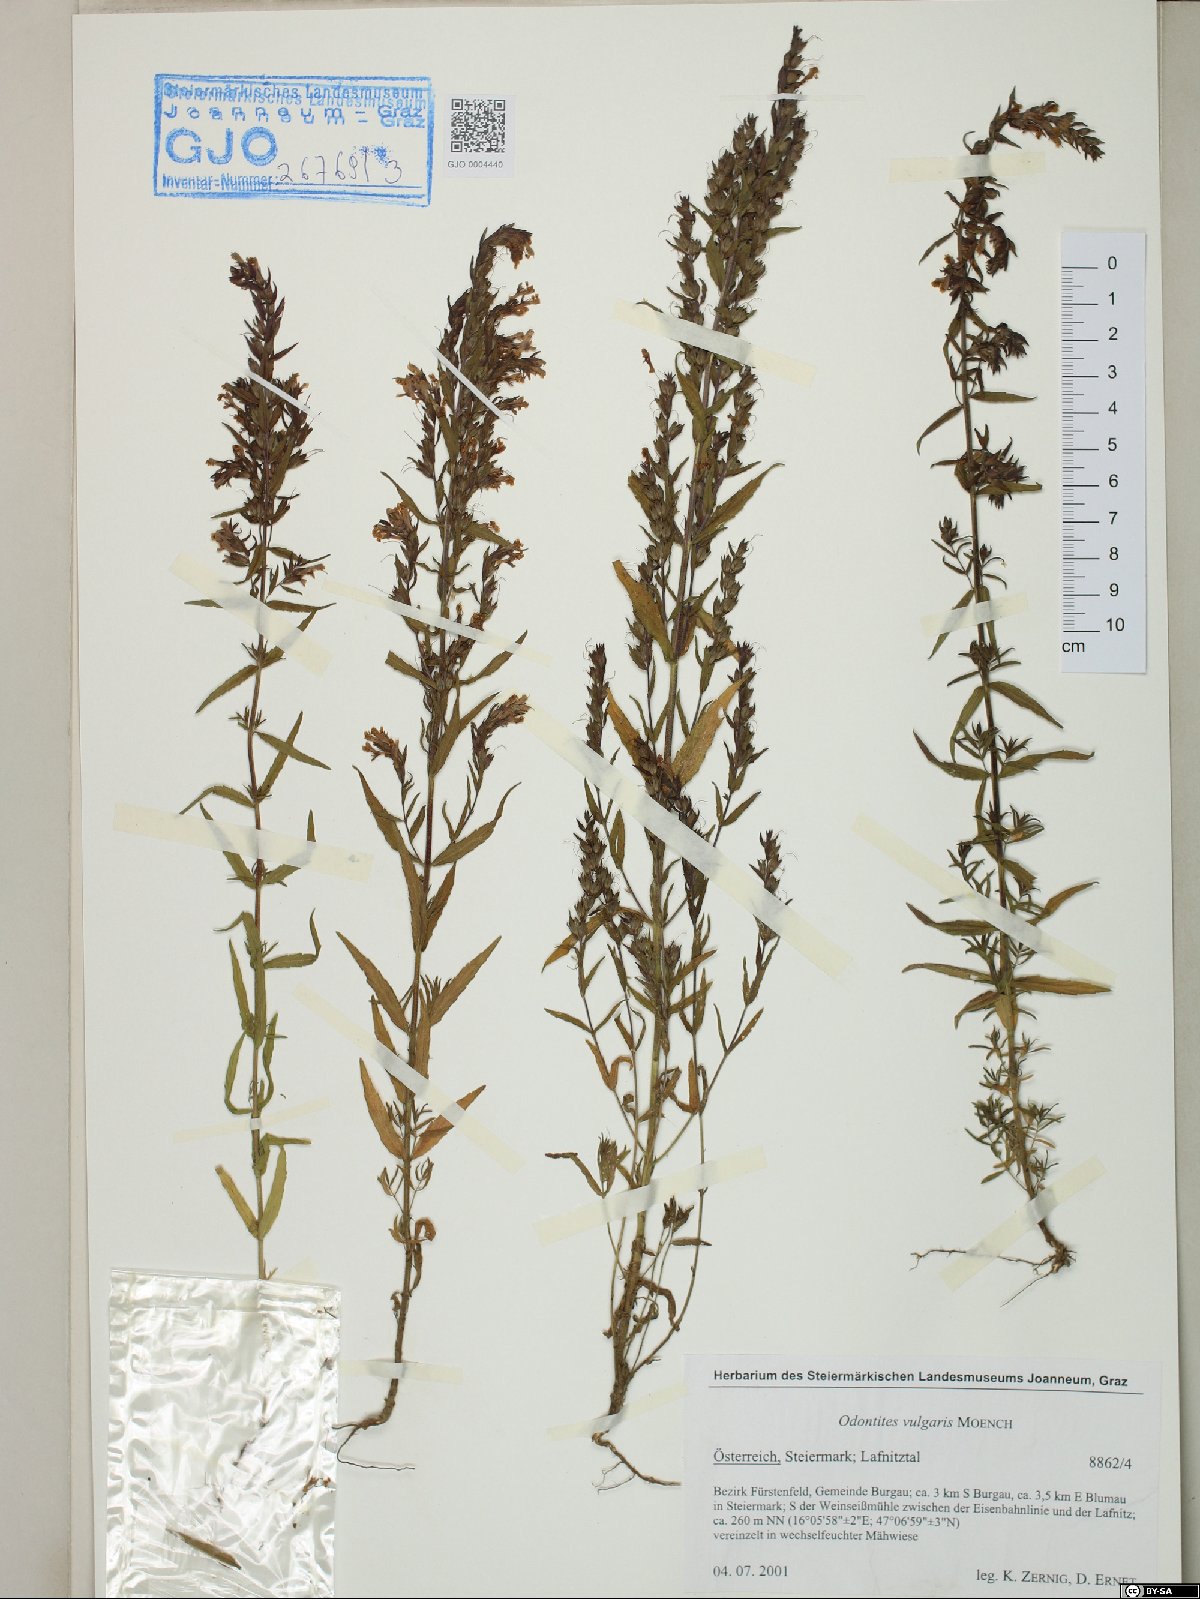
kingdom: Plantae
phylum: Tracheophyta
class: Magnoliopsida
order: Lamiales
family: Orobanchaceae
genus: Odontites
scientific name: Odontites vulgaris
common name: Broomrape
